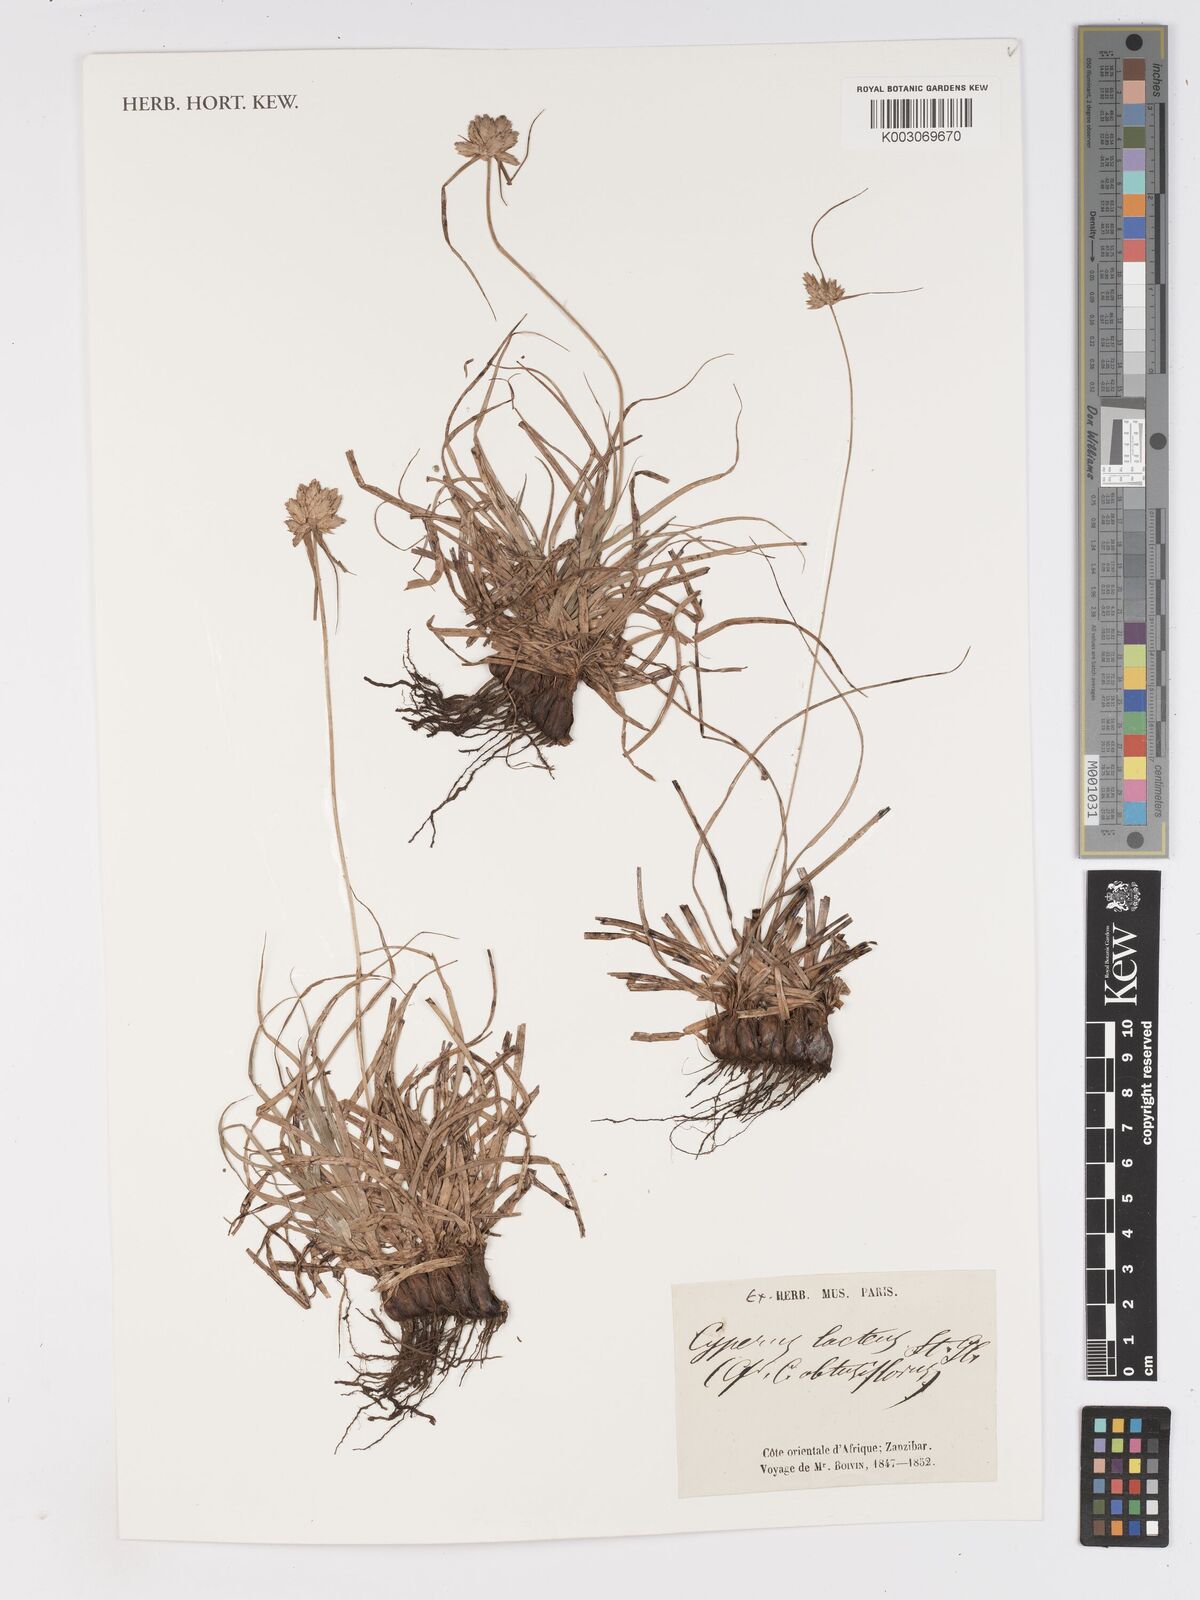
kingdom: Plantae
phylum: Tracheophyta
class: Liliopsida
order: Poales
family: Cyperaceae
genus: Cyperus
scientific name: Cyperus niveus
